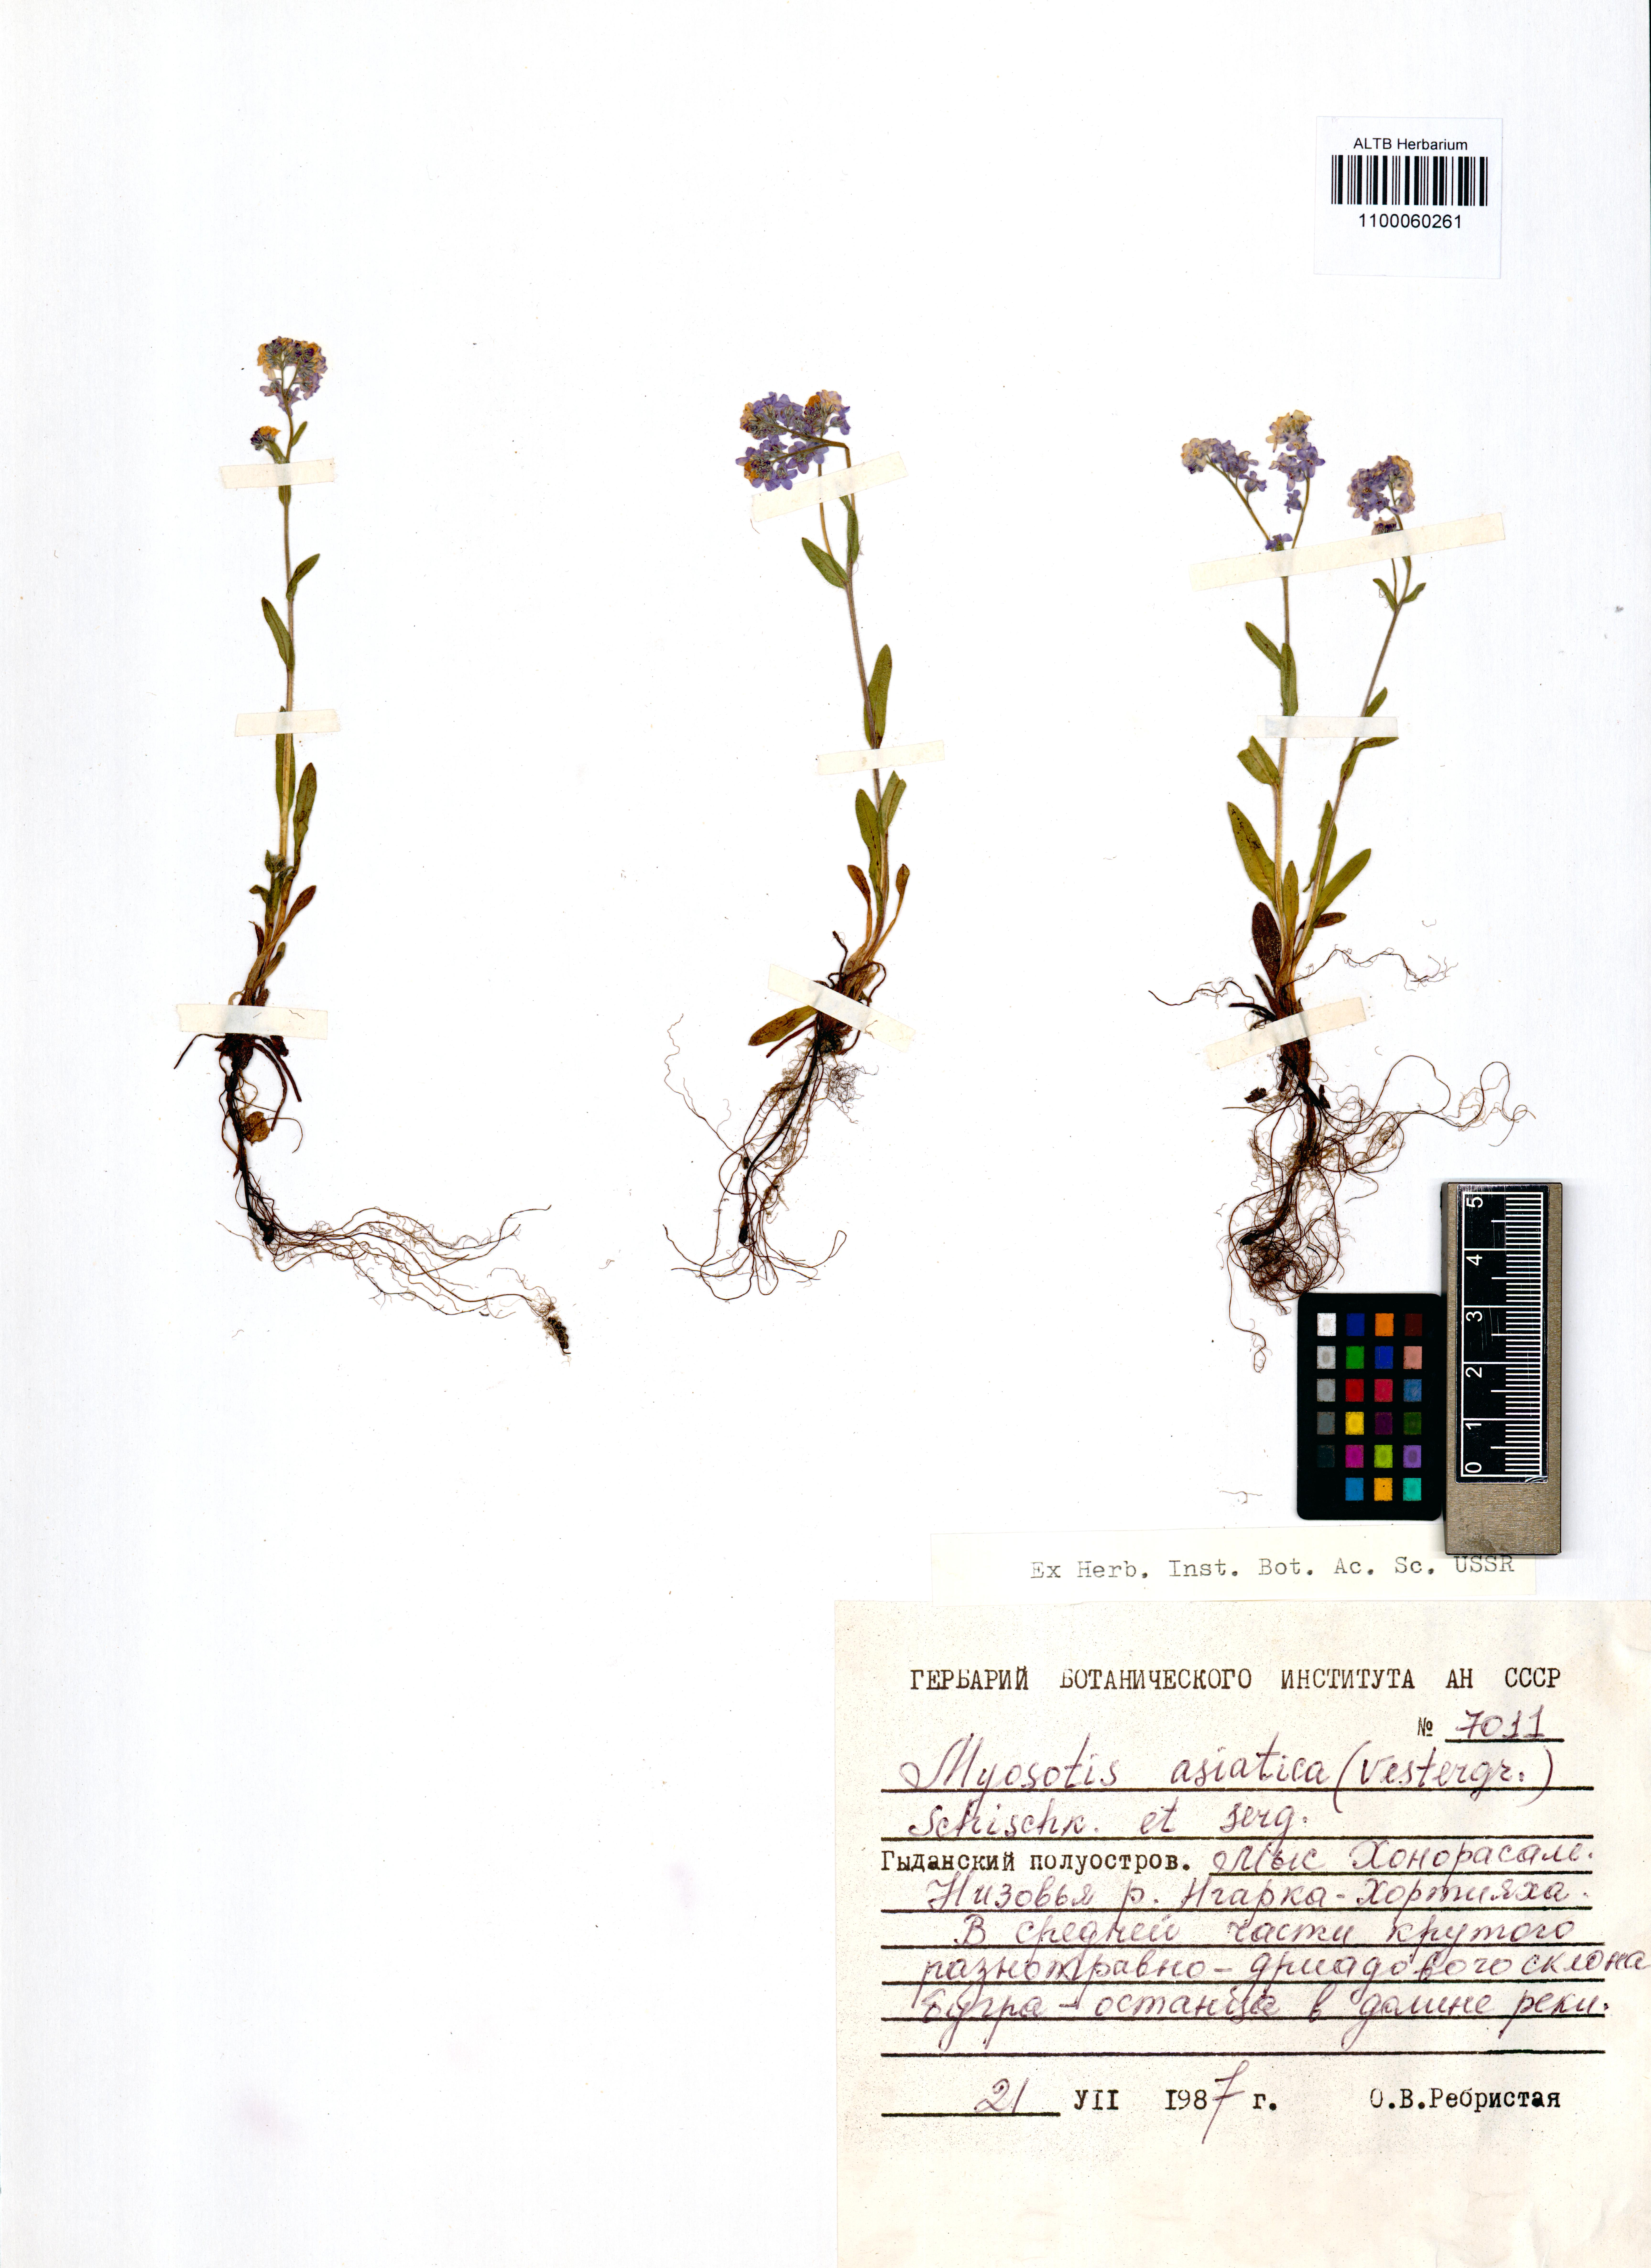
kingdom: Plantae
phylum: Tracheophyta
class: Magnoliopsida
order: Boraginales
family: Boraginaceae
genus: Myosotis
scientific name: Myosotis asiatica
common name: Asian forget-me-not
